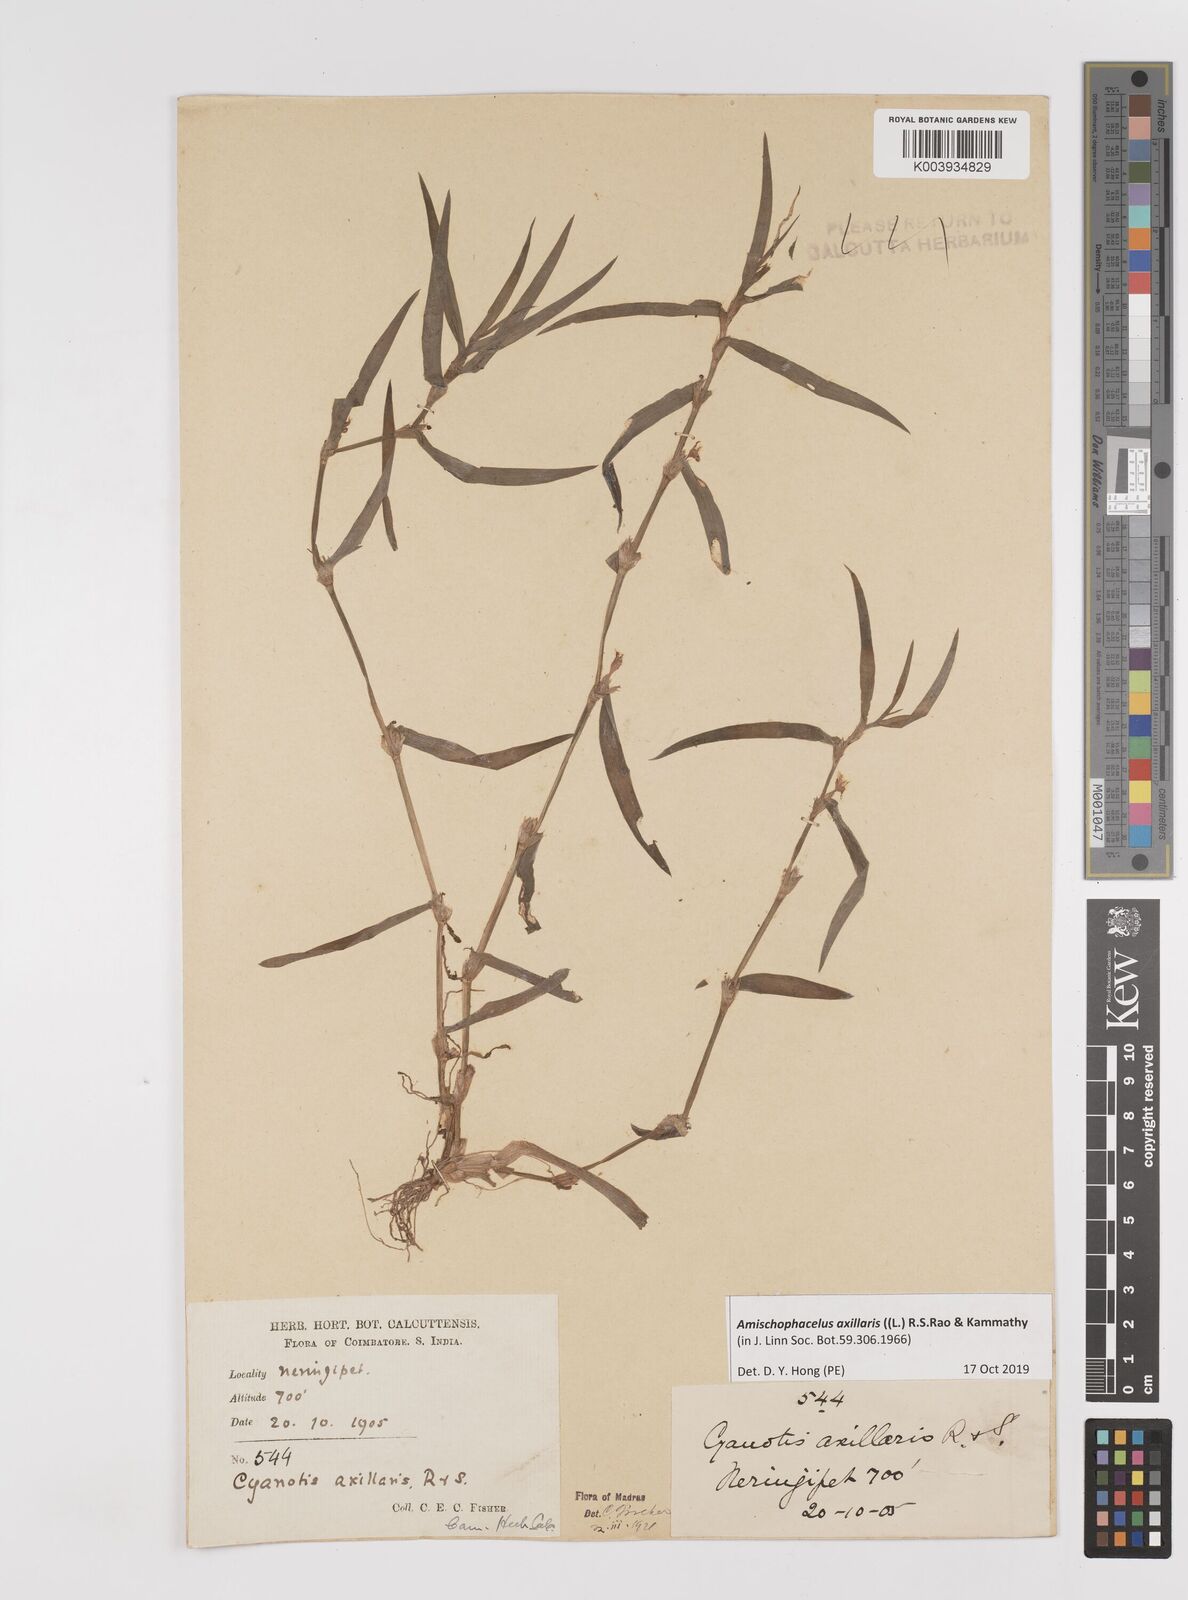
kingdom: Plantae
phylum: Tracheophyta
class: Liliopsida
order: Commelinales
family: Commelinaceae
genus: Cyanotis
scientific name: Cyanotis axillaris
